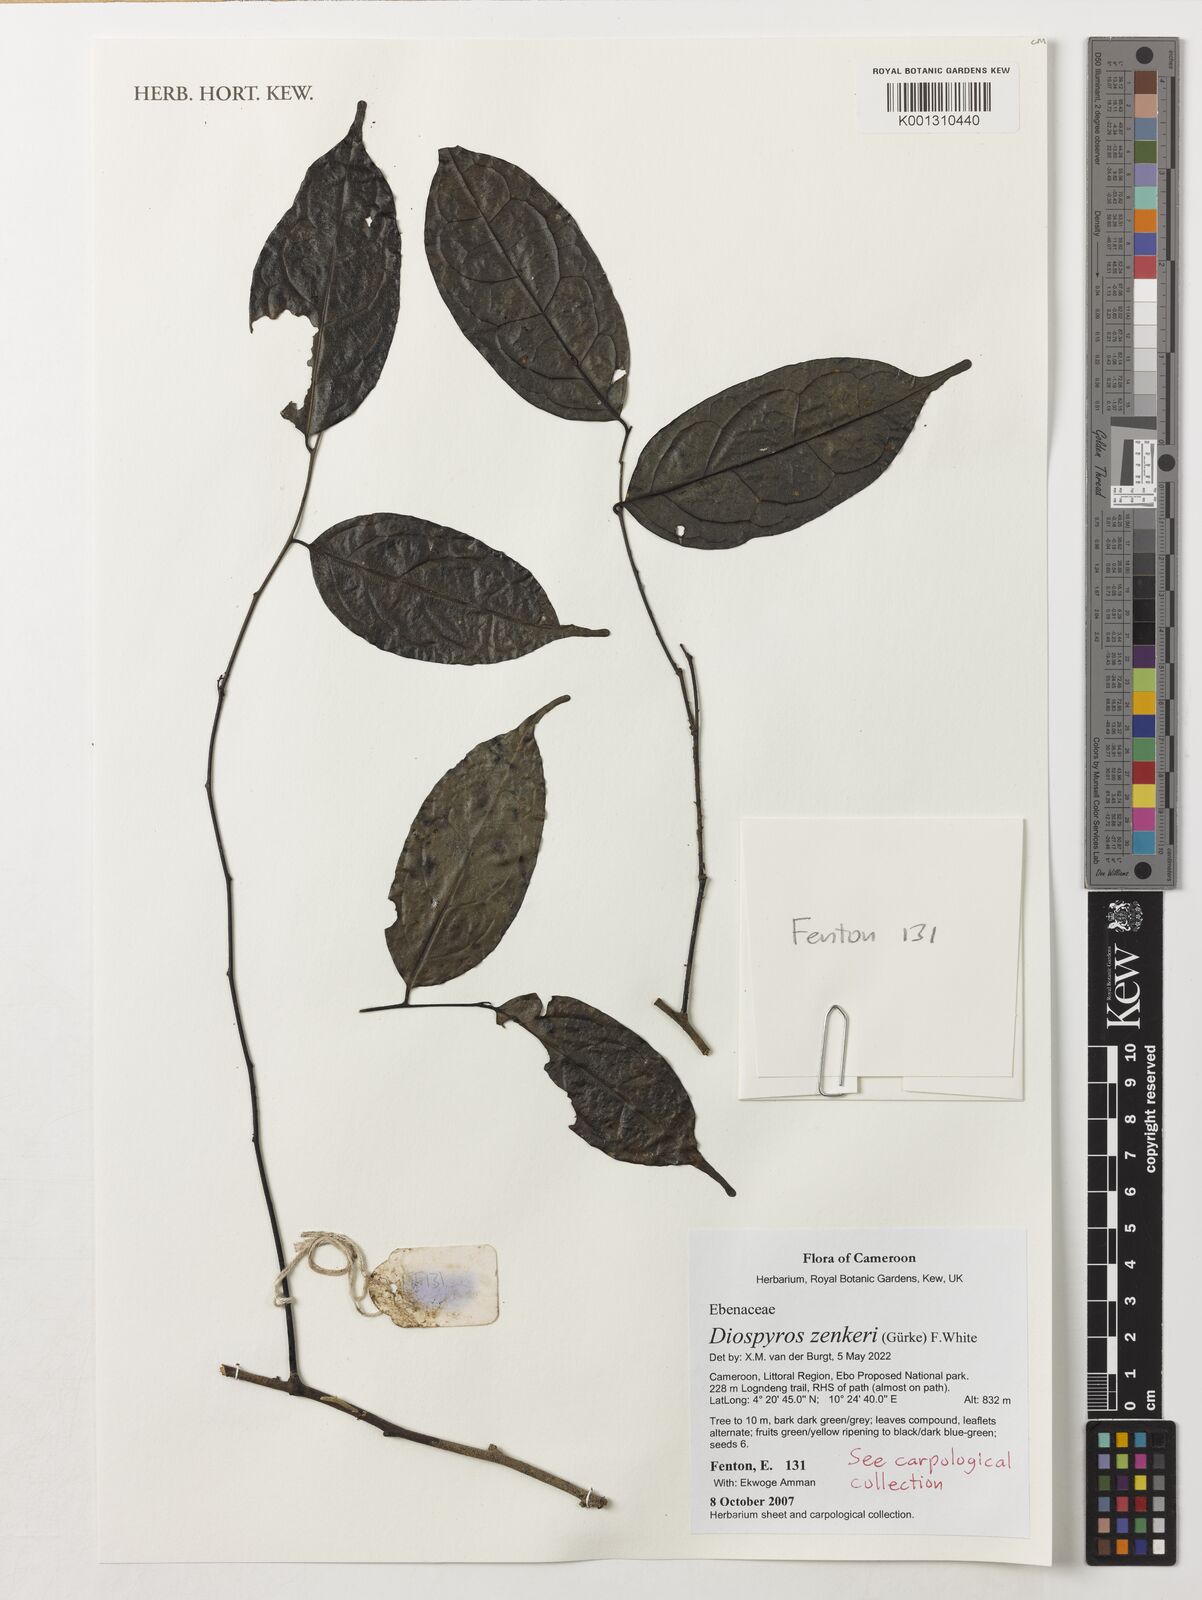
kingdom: Plantae
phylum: Tracheophyta
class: Magnoliopsida
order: Ericales
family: Ebenaceae
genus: Diospyros
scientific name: Diospyros zenkeri
